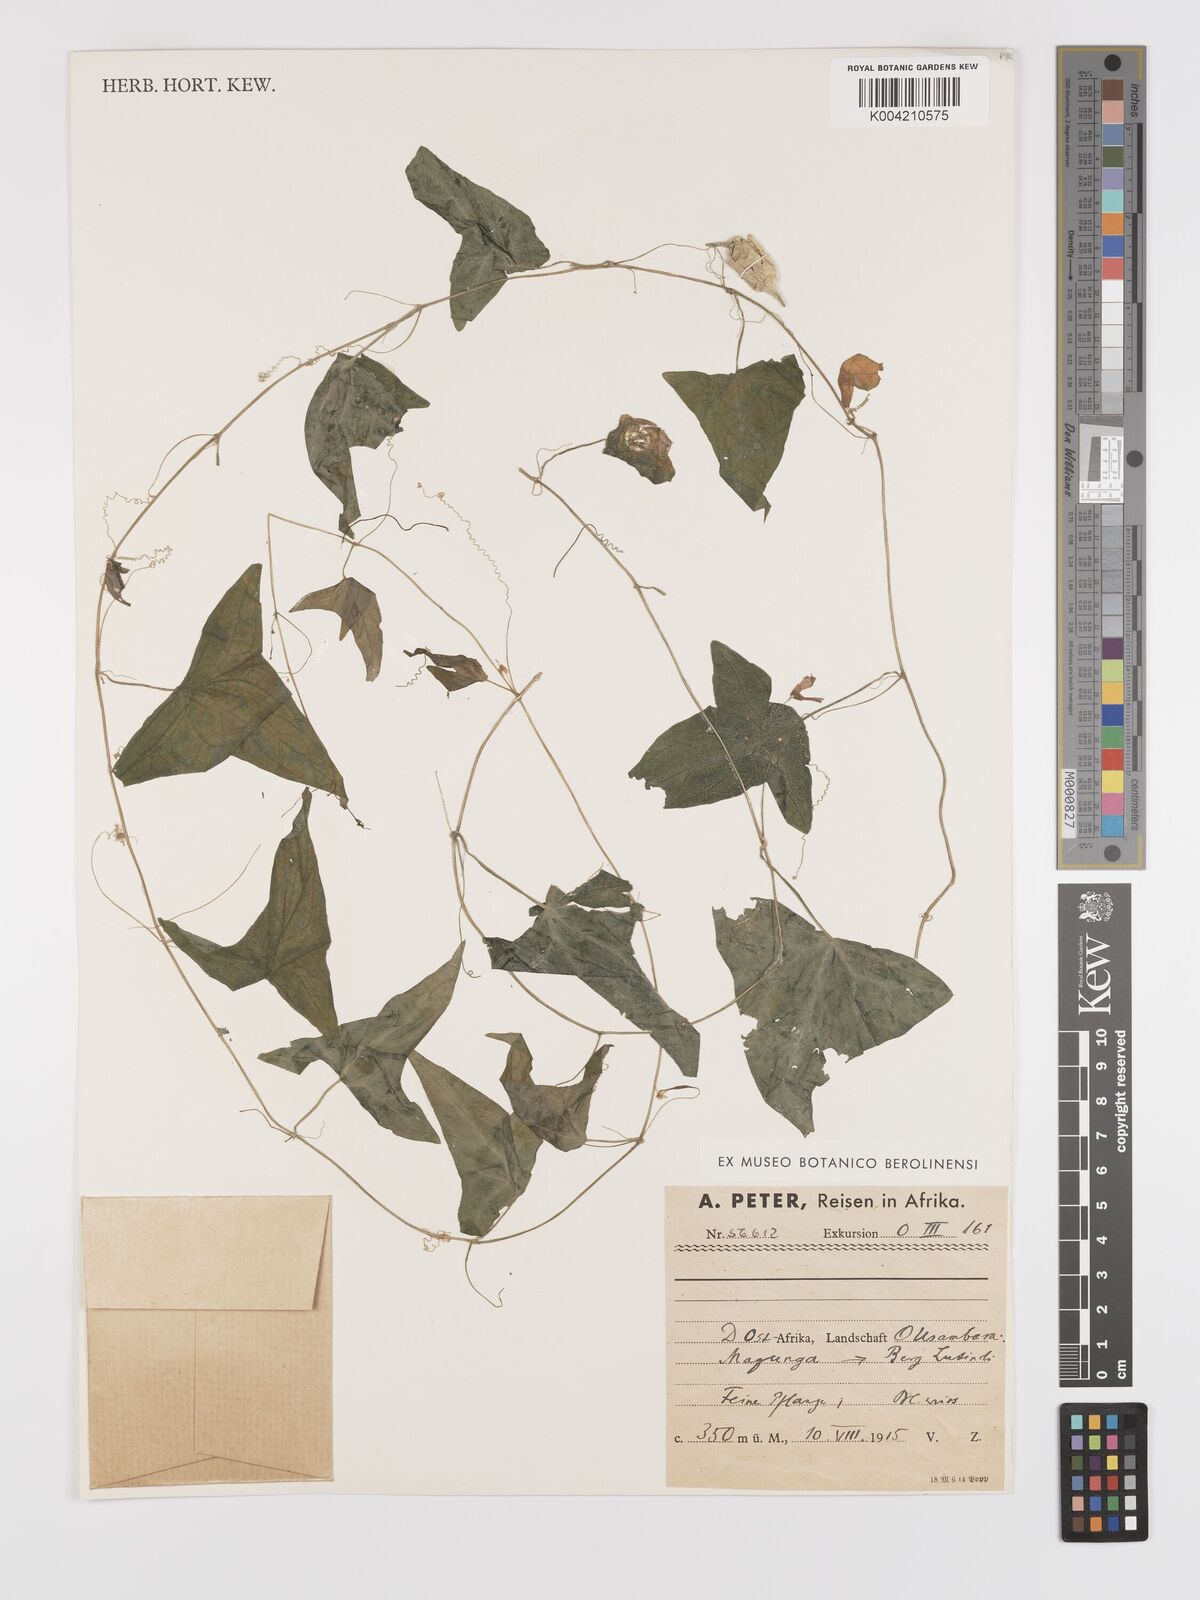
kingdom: Plantae
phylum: Tracheophyta
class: Magnoliopsida
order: Cucurbitales
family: Cucurbitaceae
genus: Zehneria
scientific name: Zehneria thwaitesii
